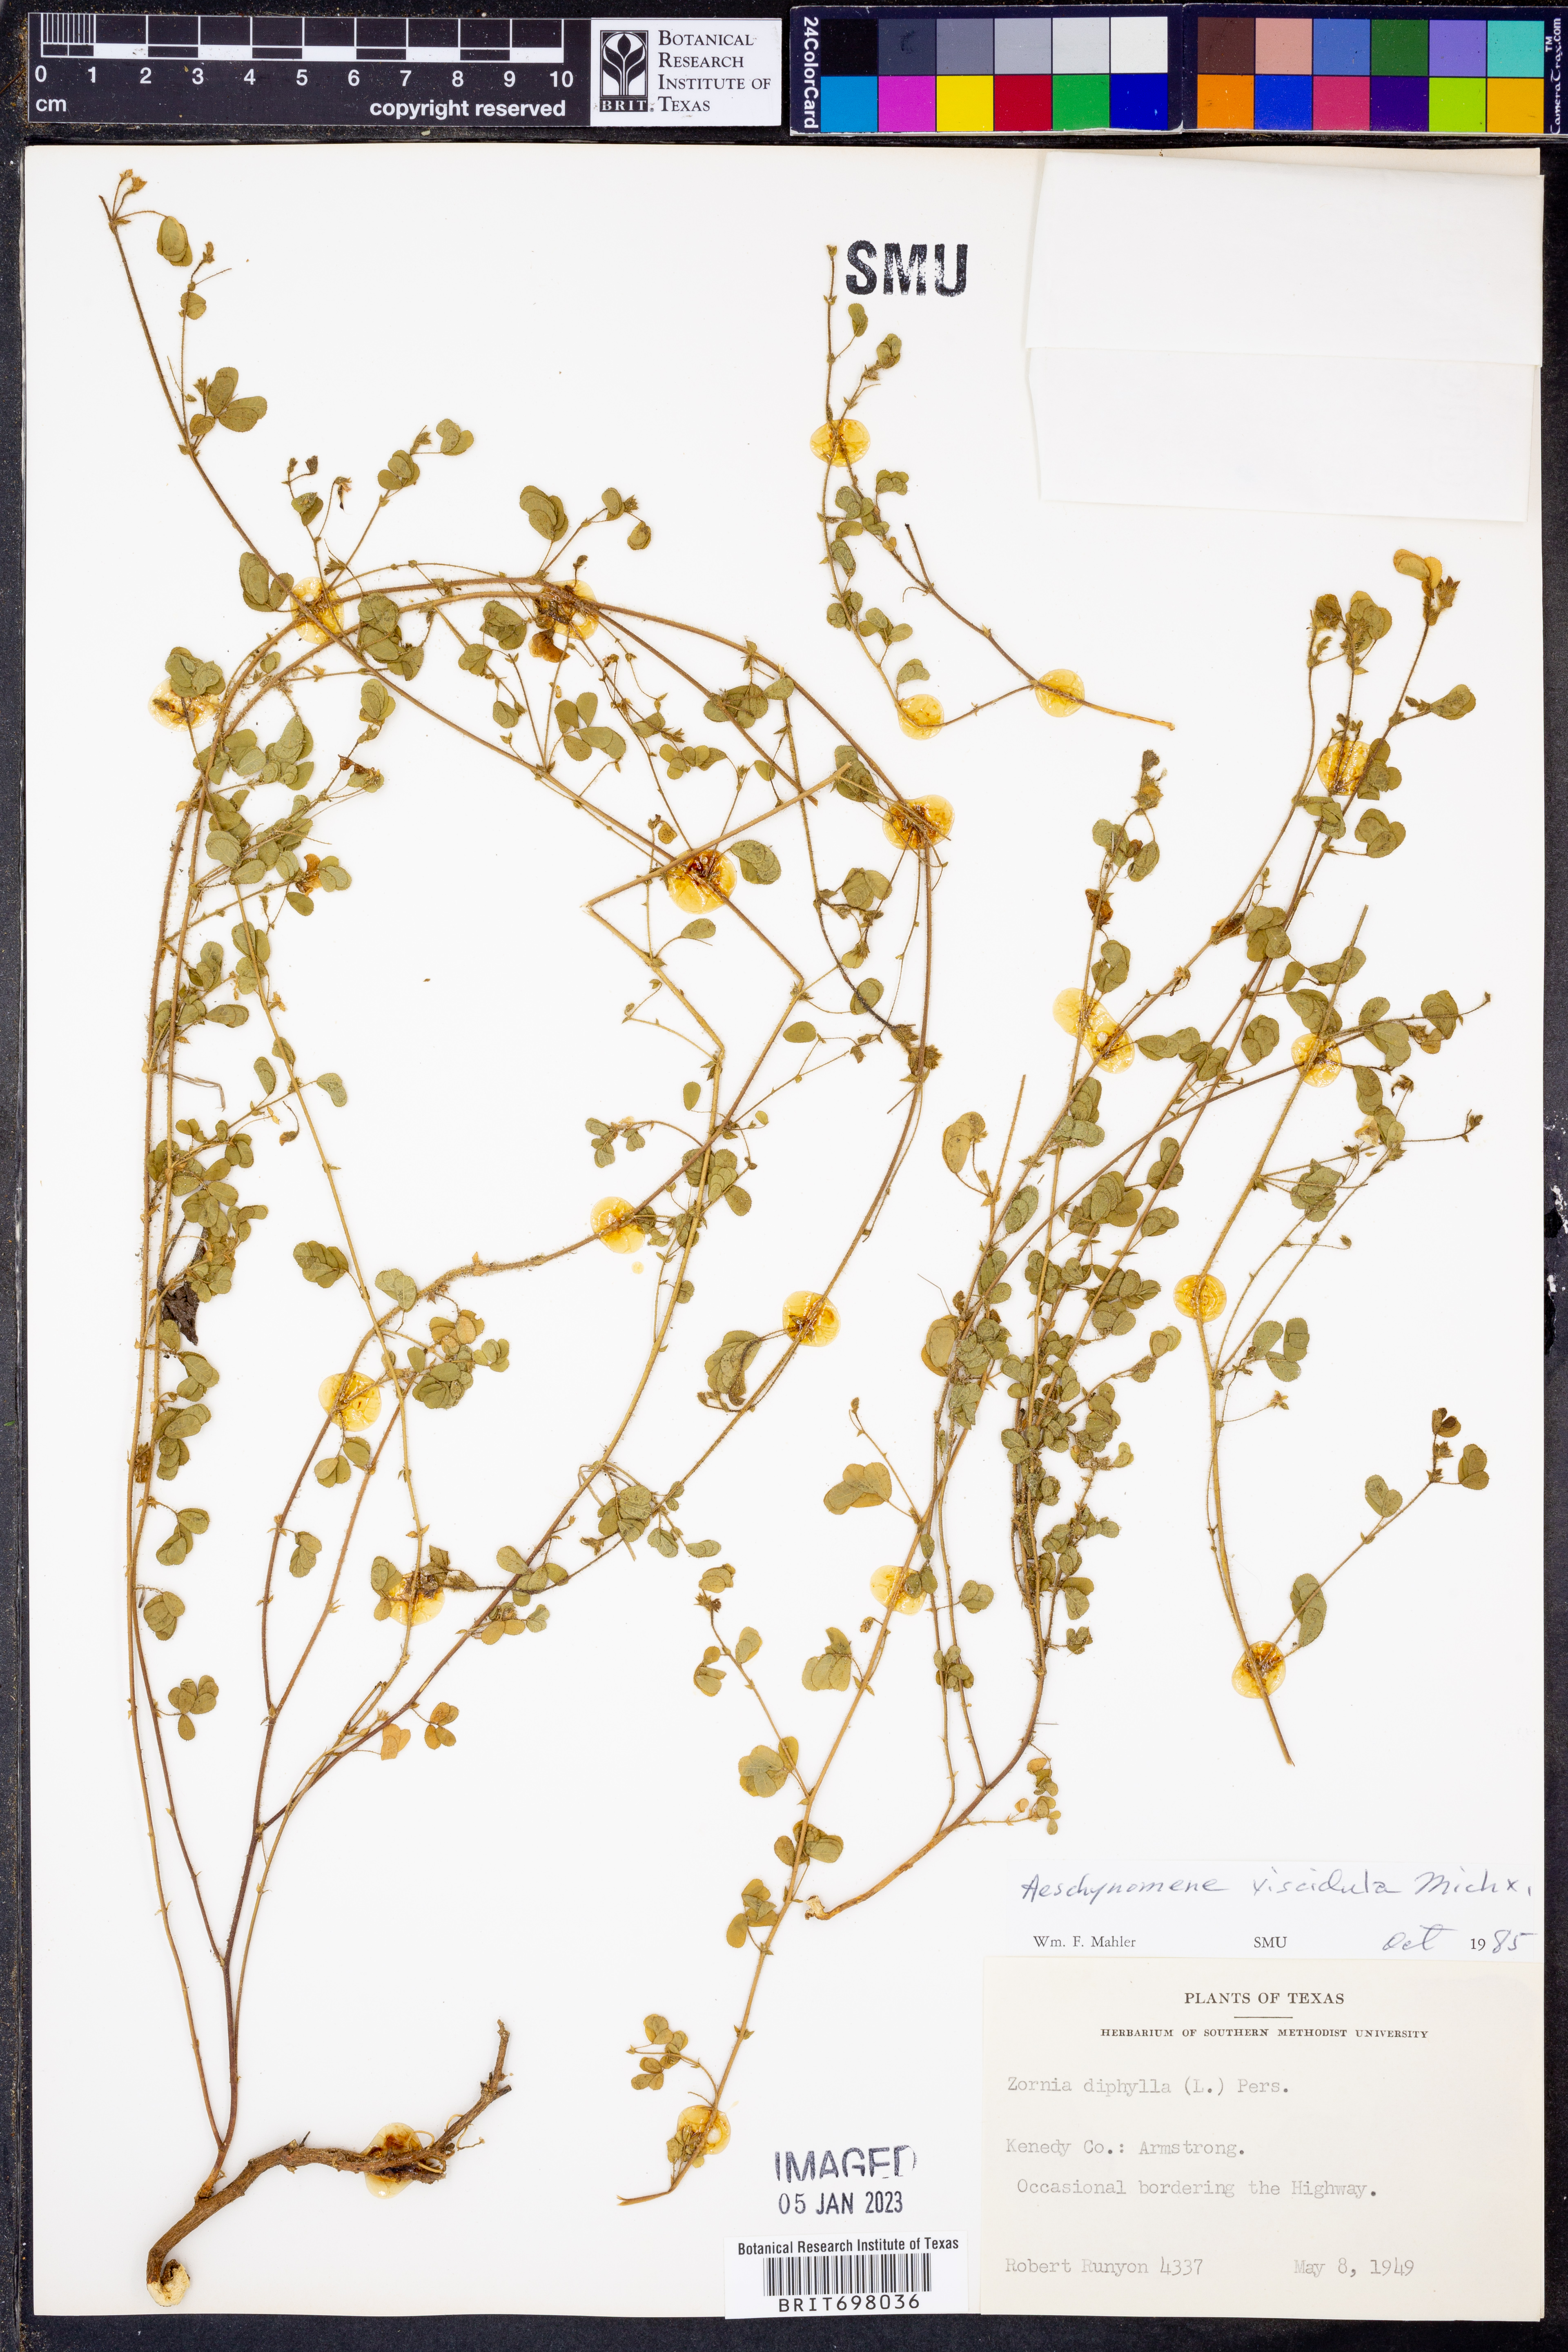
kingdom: Plantae
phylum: Tracheophyta
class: Magnoliopsida
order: Fabales
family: Fabaceae
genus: Aeschynomene
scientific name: Aeschynomene indica
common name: Indian jointvetch
